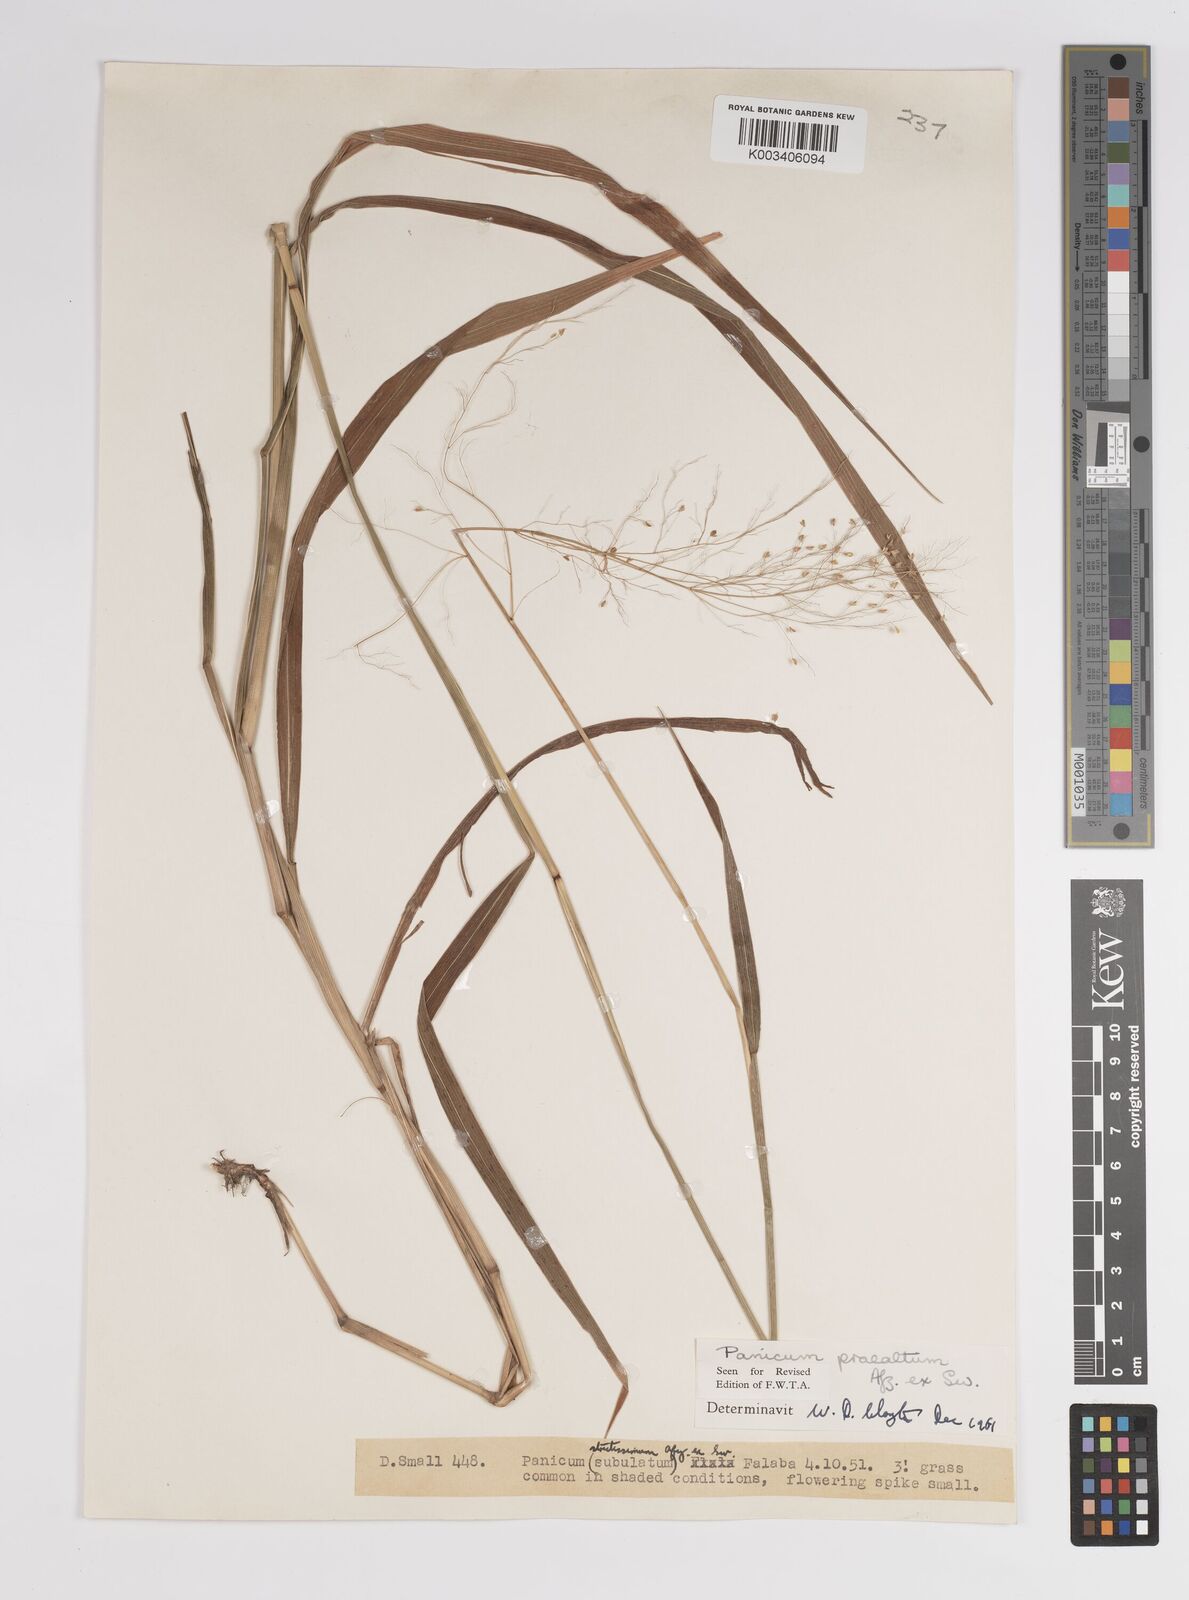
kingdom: Plantae
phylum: Tracheophyta
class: Liliopsida
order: Poales
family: Poaceae
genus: Trichanthecium
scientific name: Trichanthecium praealtum
